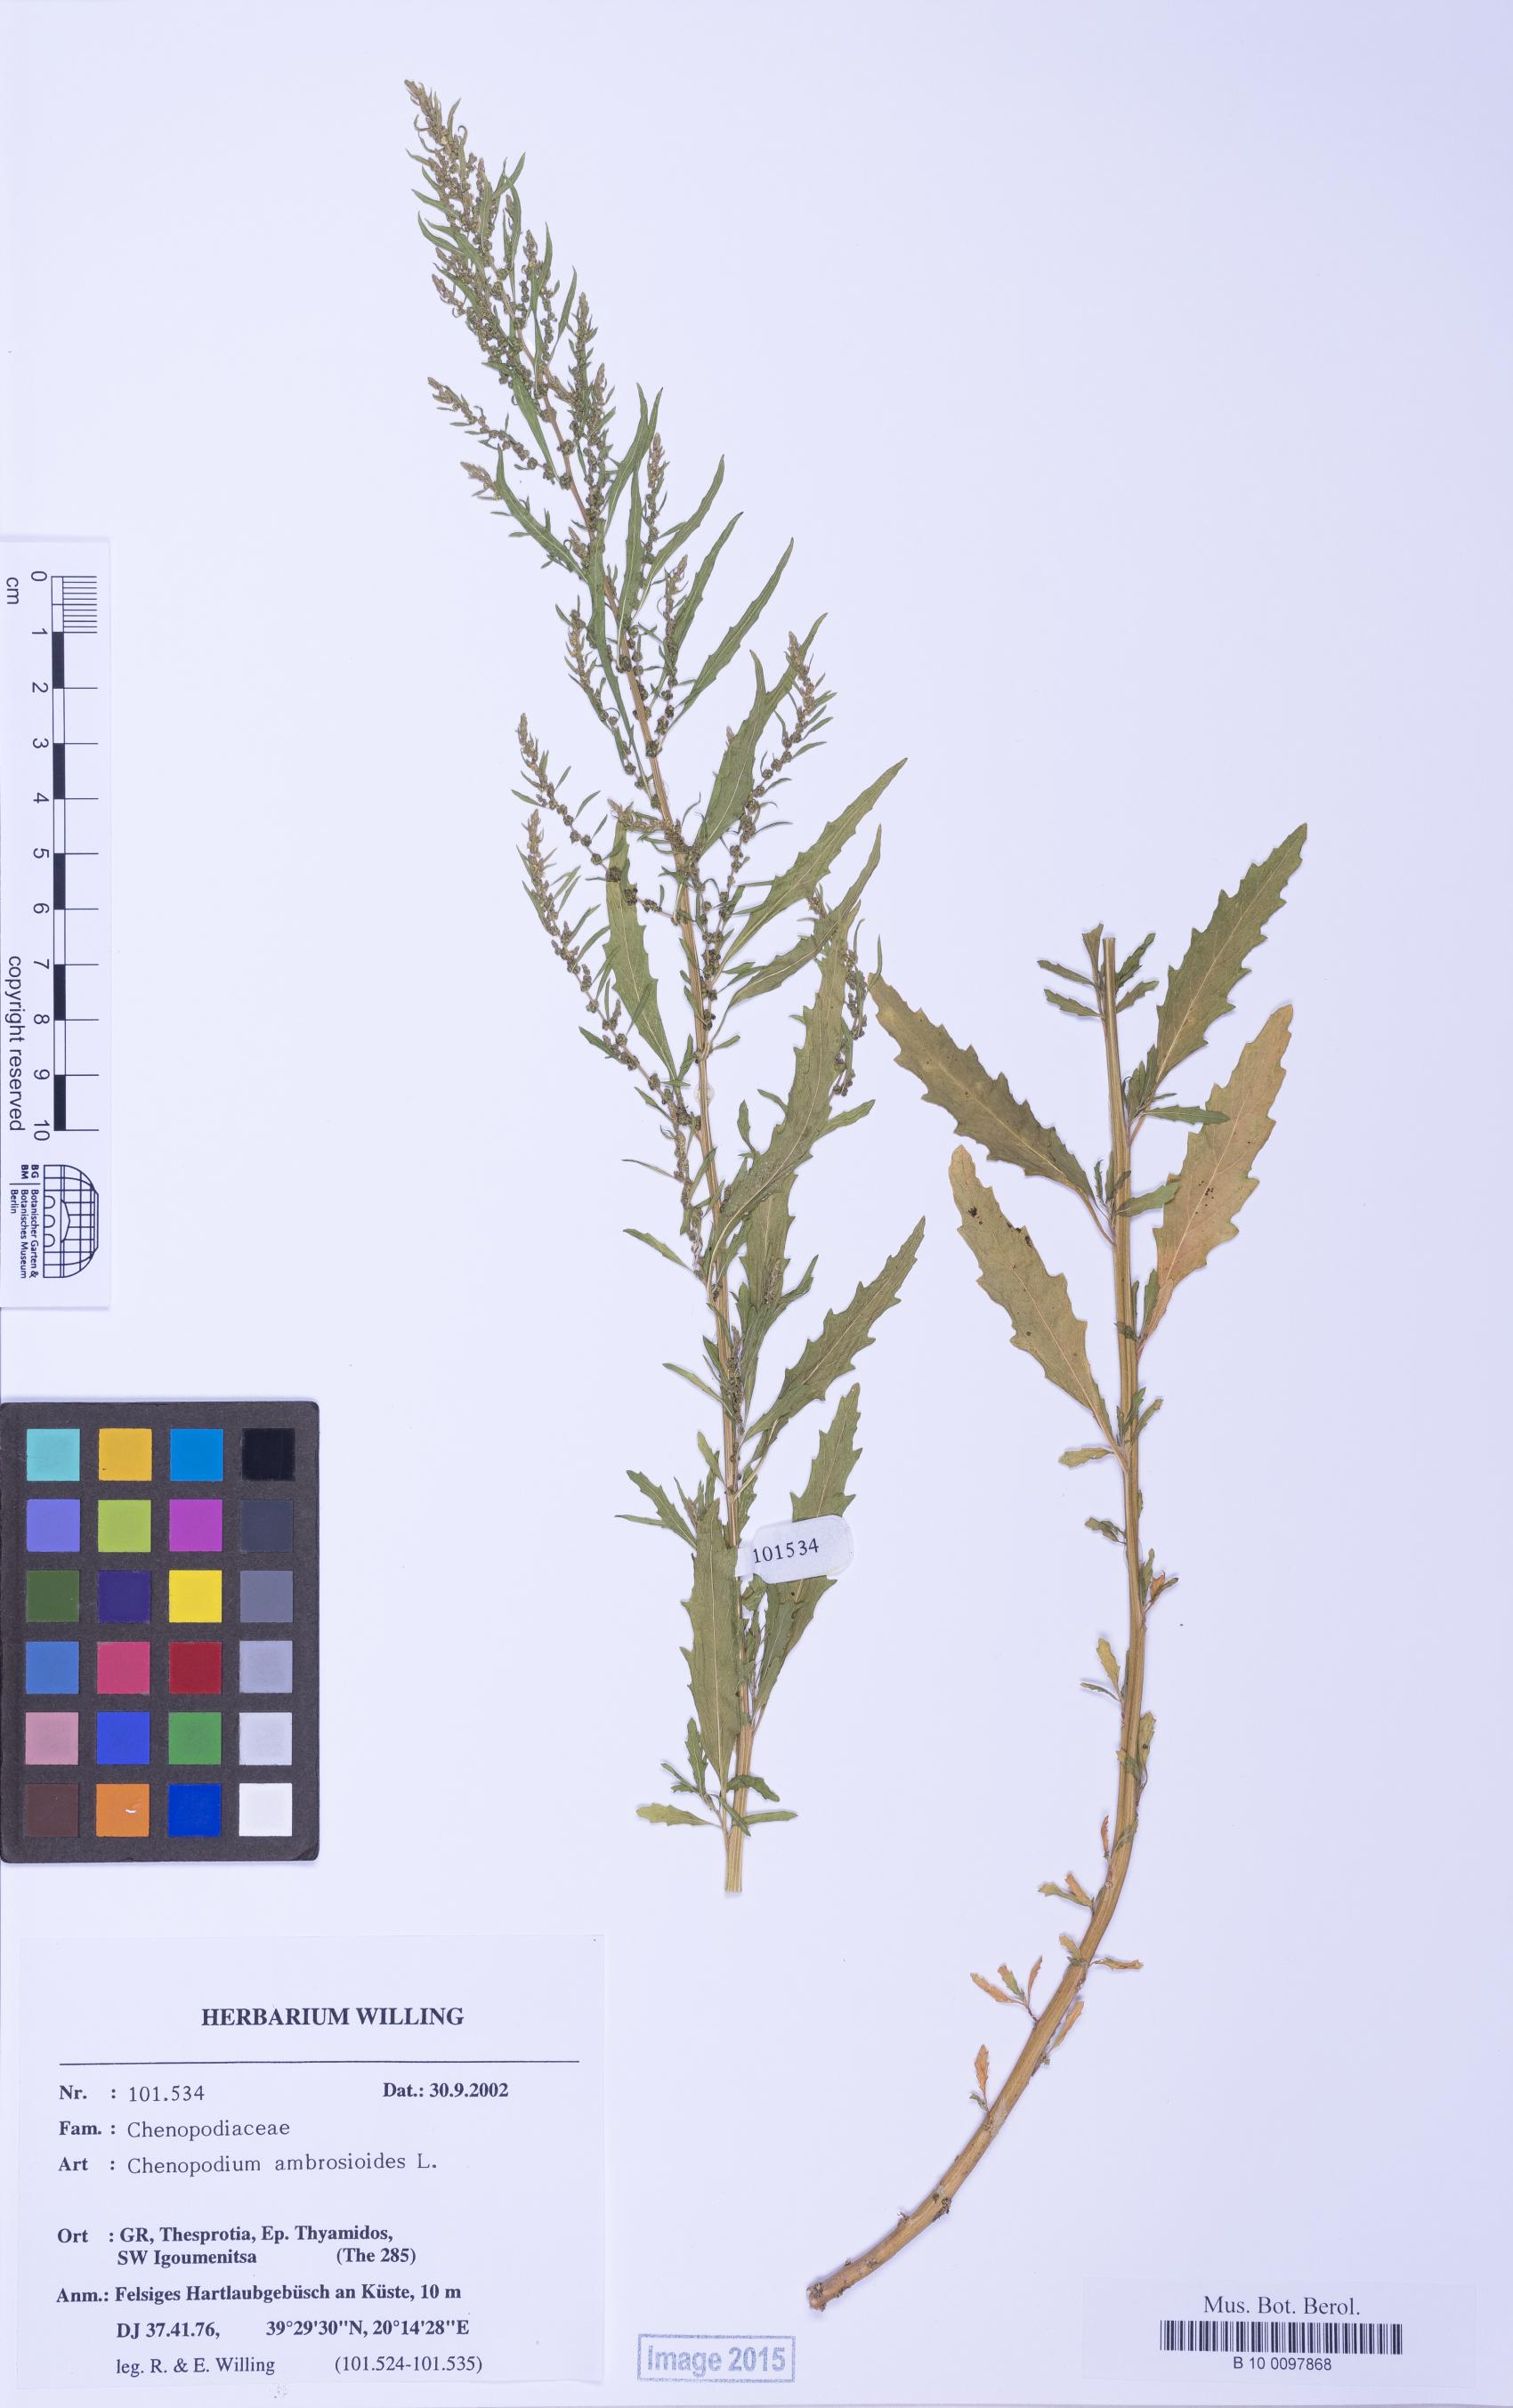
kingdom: Plantae
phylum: Tracheophyta
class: Magnoliopsida
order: Caryophyllales
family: Amaranthaceae
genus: Dysphania
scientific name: Dysphania ambrosioides
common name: Wormseed
